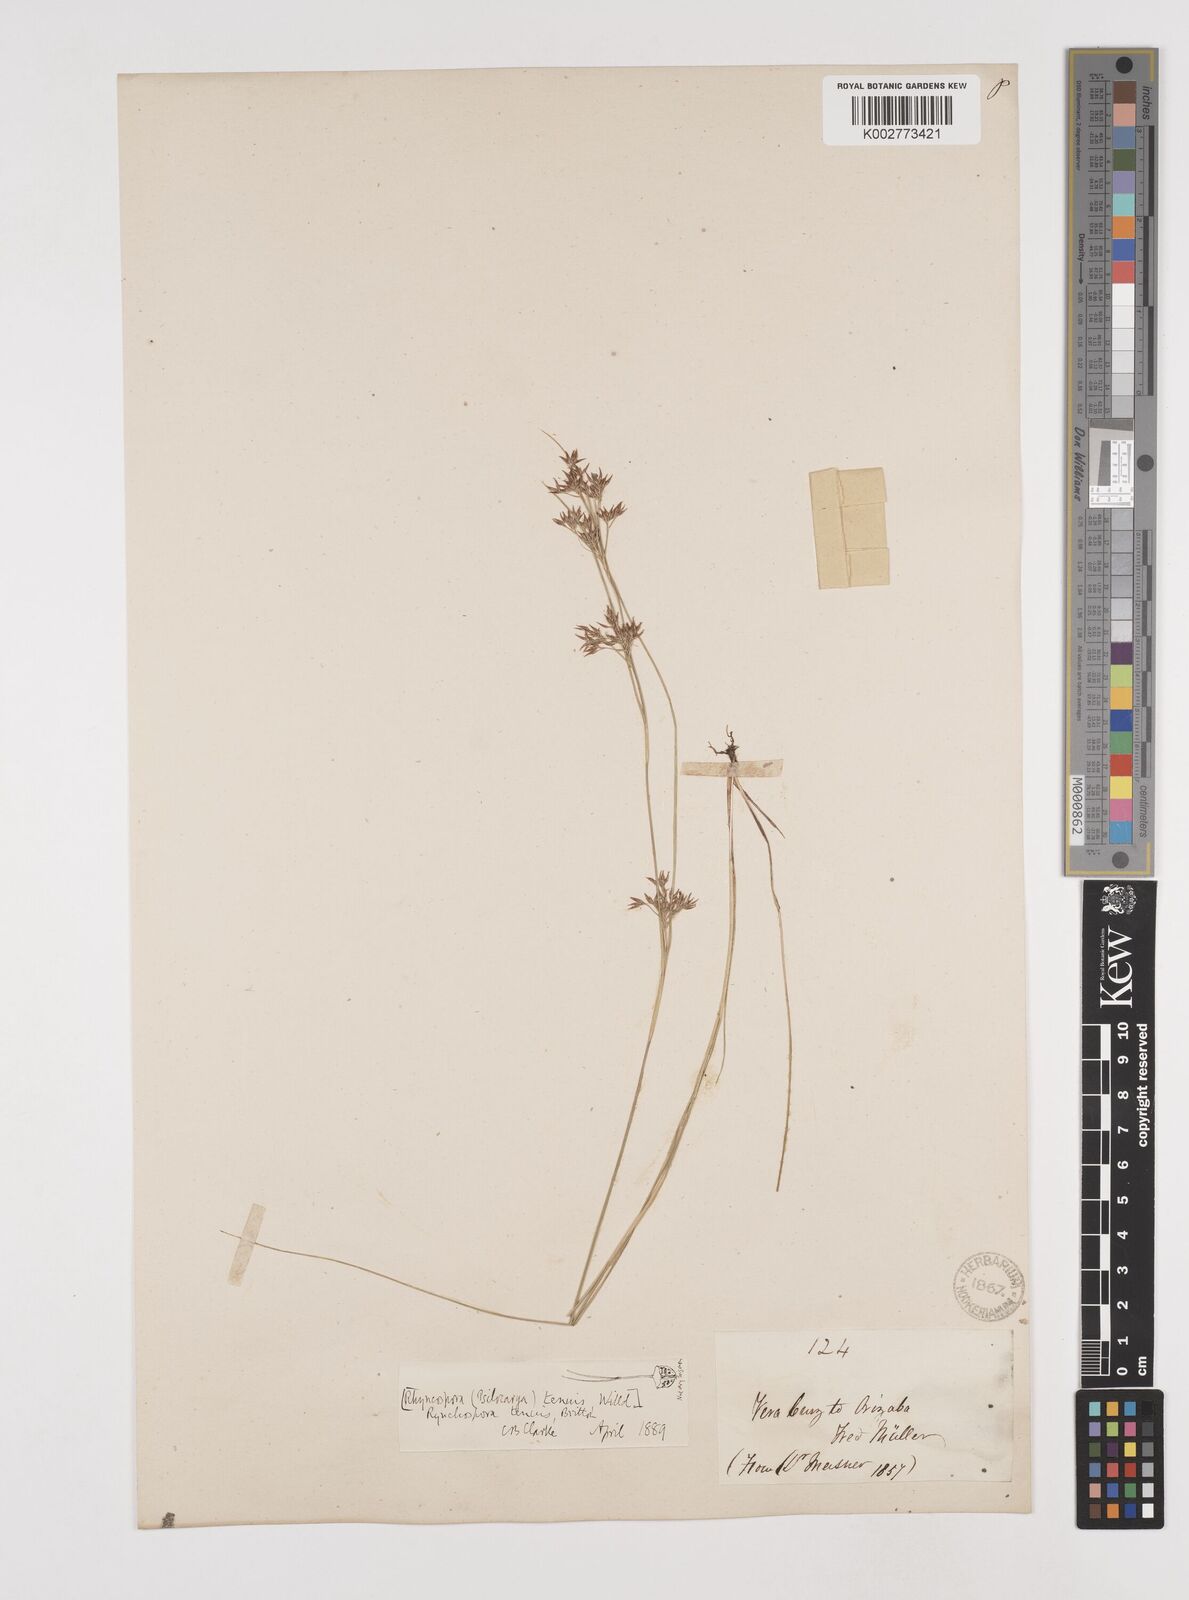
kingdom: Plantae
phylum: Tracheophyta
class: Liliopsida
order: Poales
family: Cyperaceae
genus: Rhynchospora
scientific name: Rhynchospora tenuis
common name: Quill beaksedge
